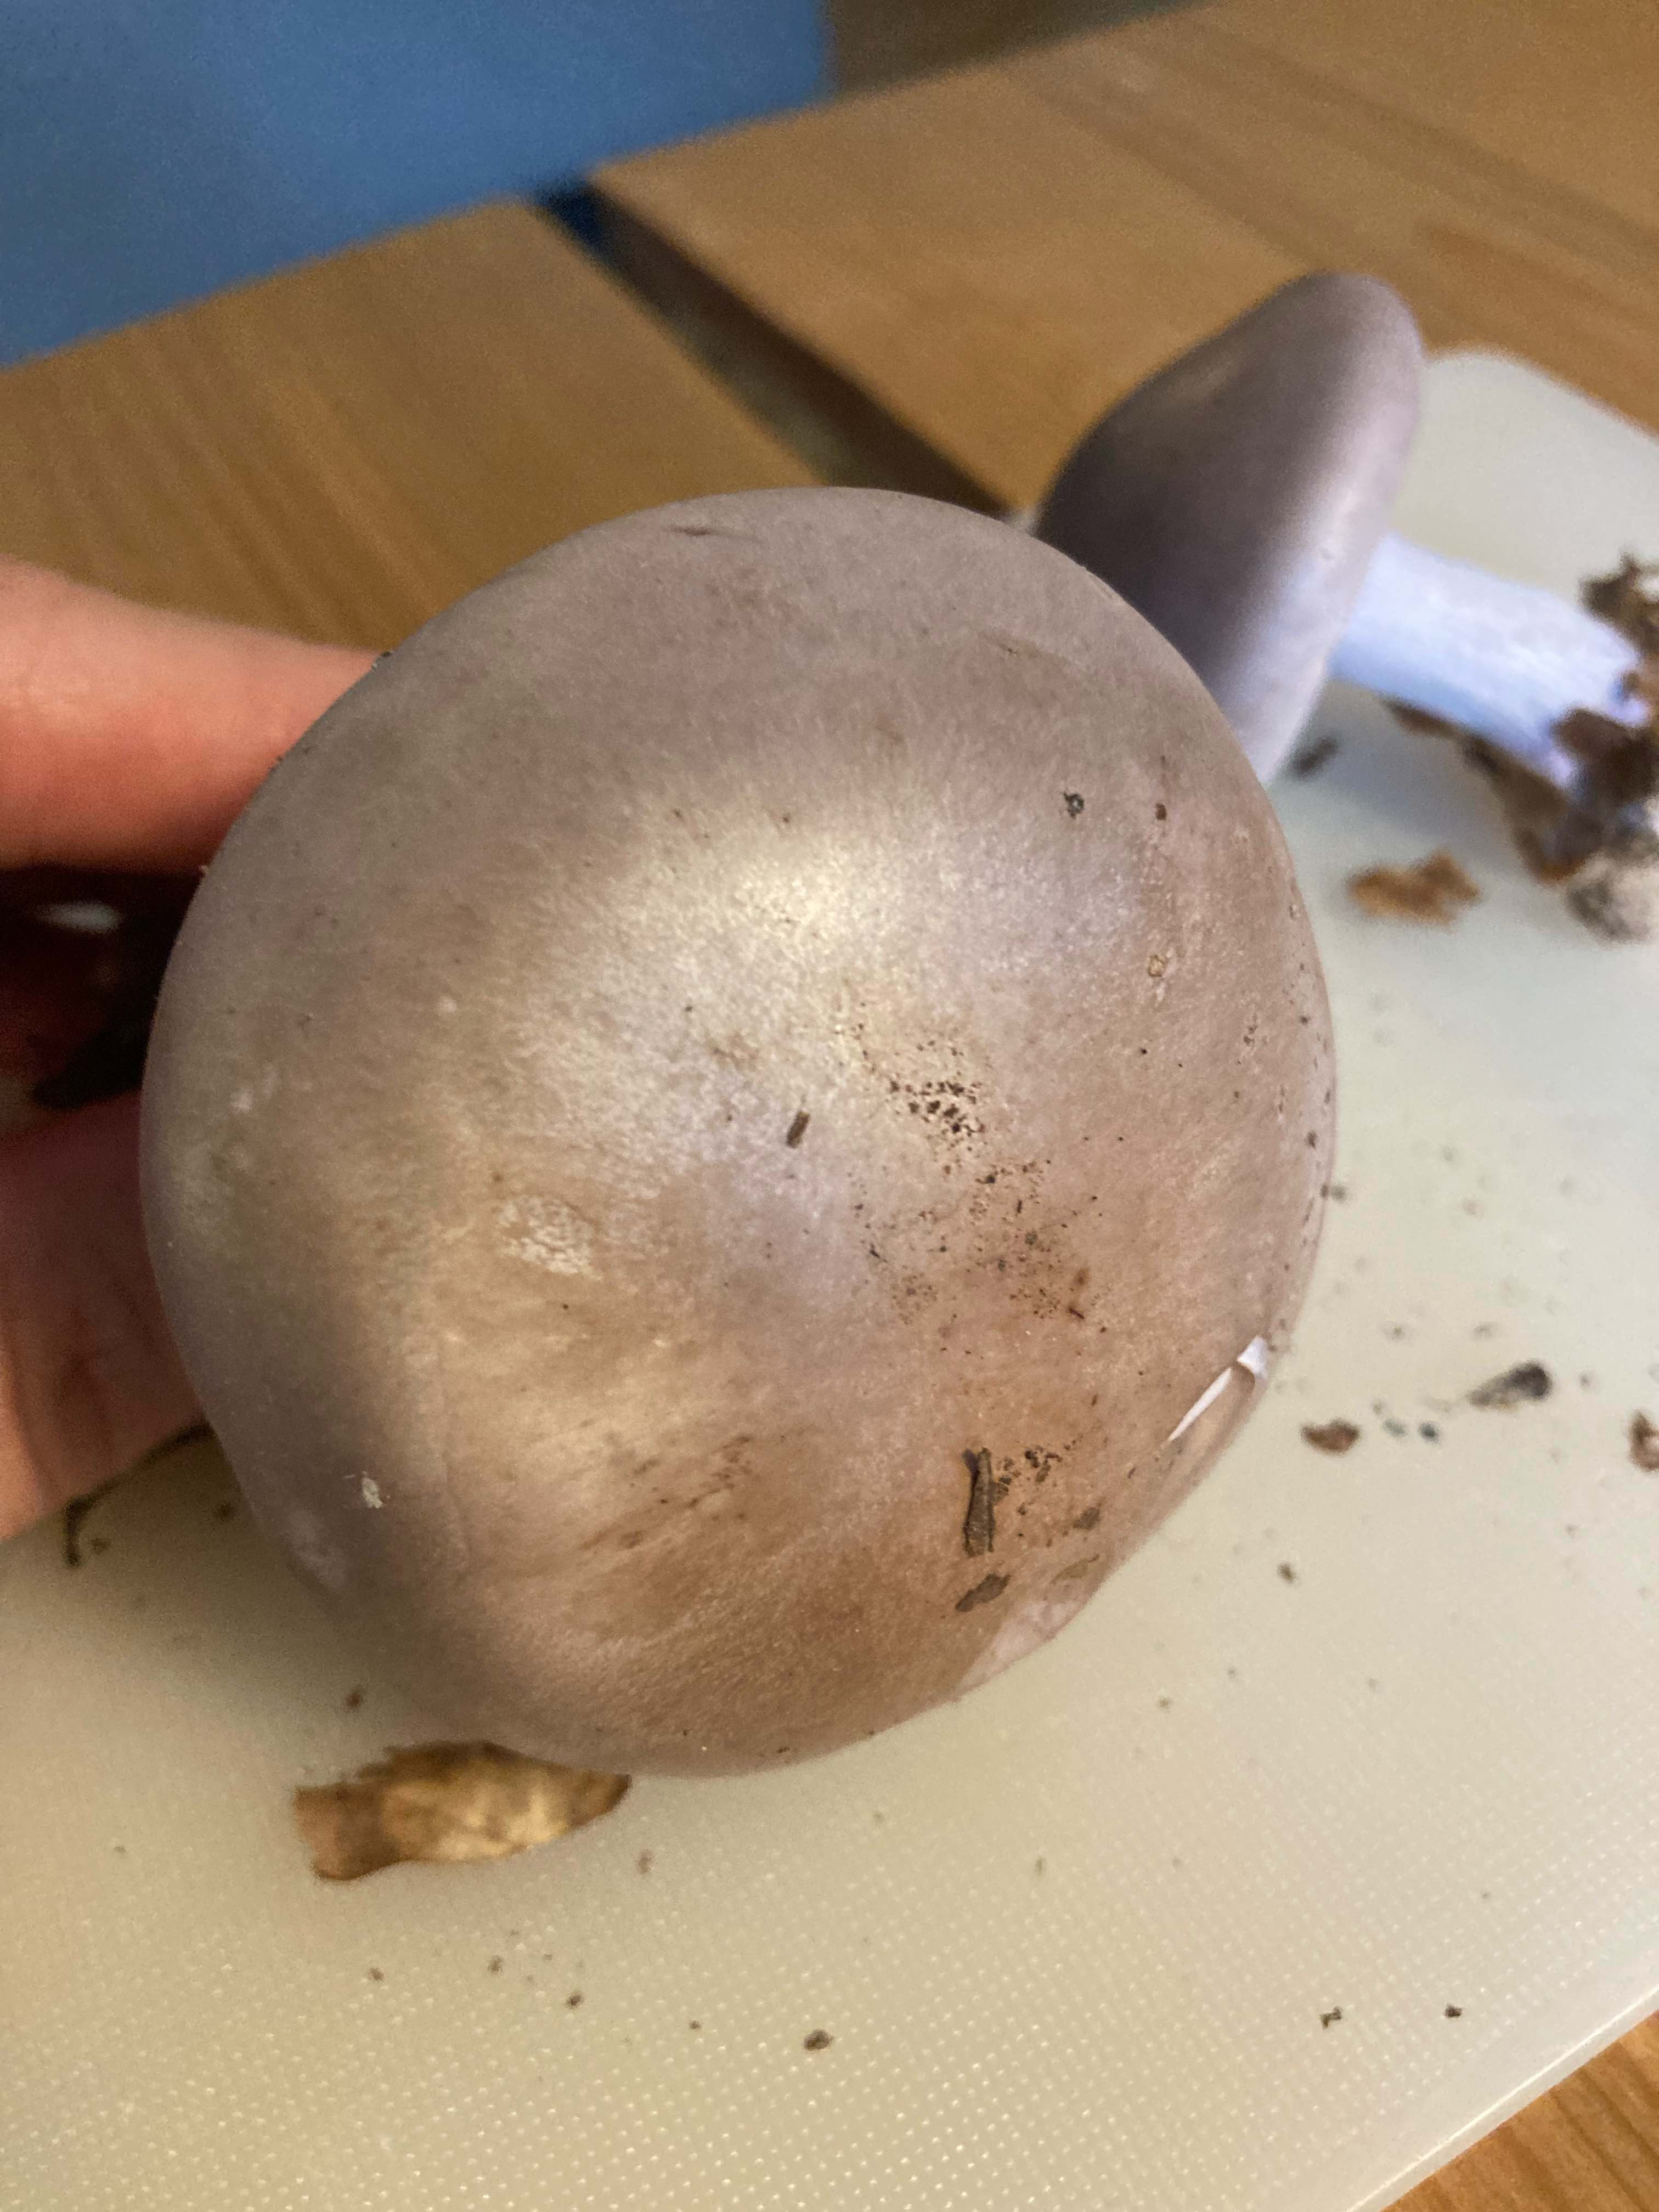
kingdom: Fungi
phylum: Basidiomycota
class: Agaricomycetes
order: Agaricales
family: Tricholomataceae
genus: Lepista
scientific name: Lepista nuda
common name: violet hekseringshat
